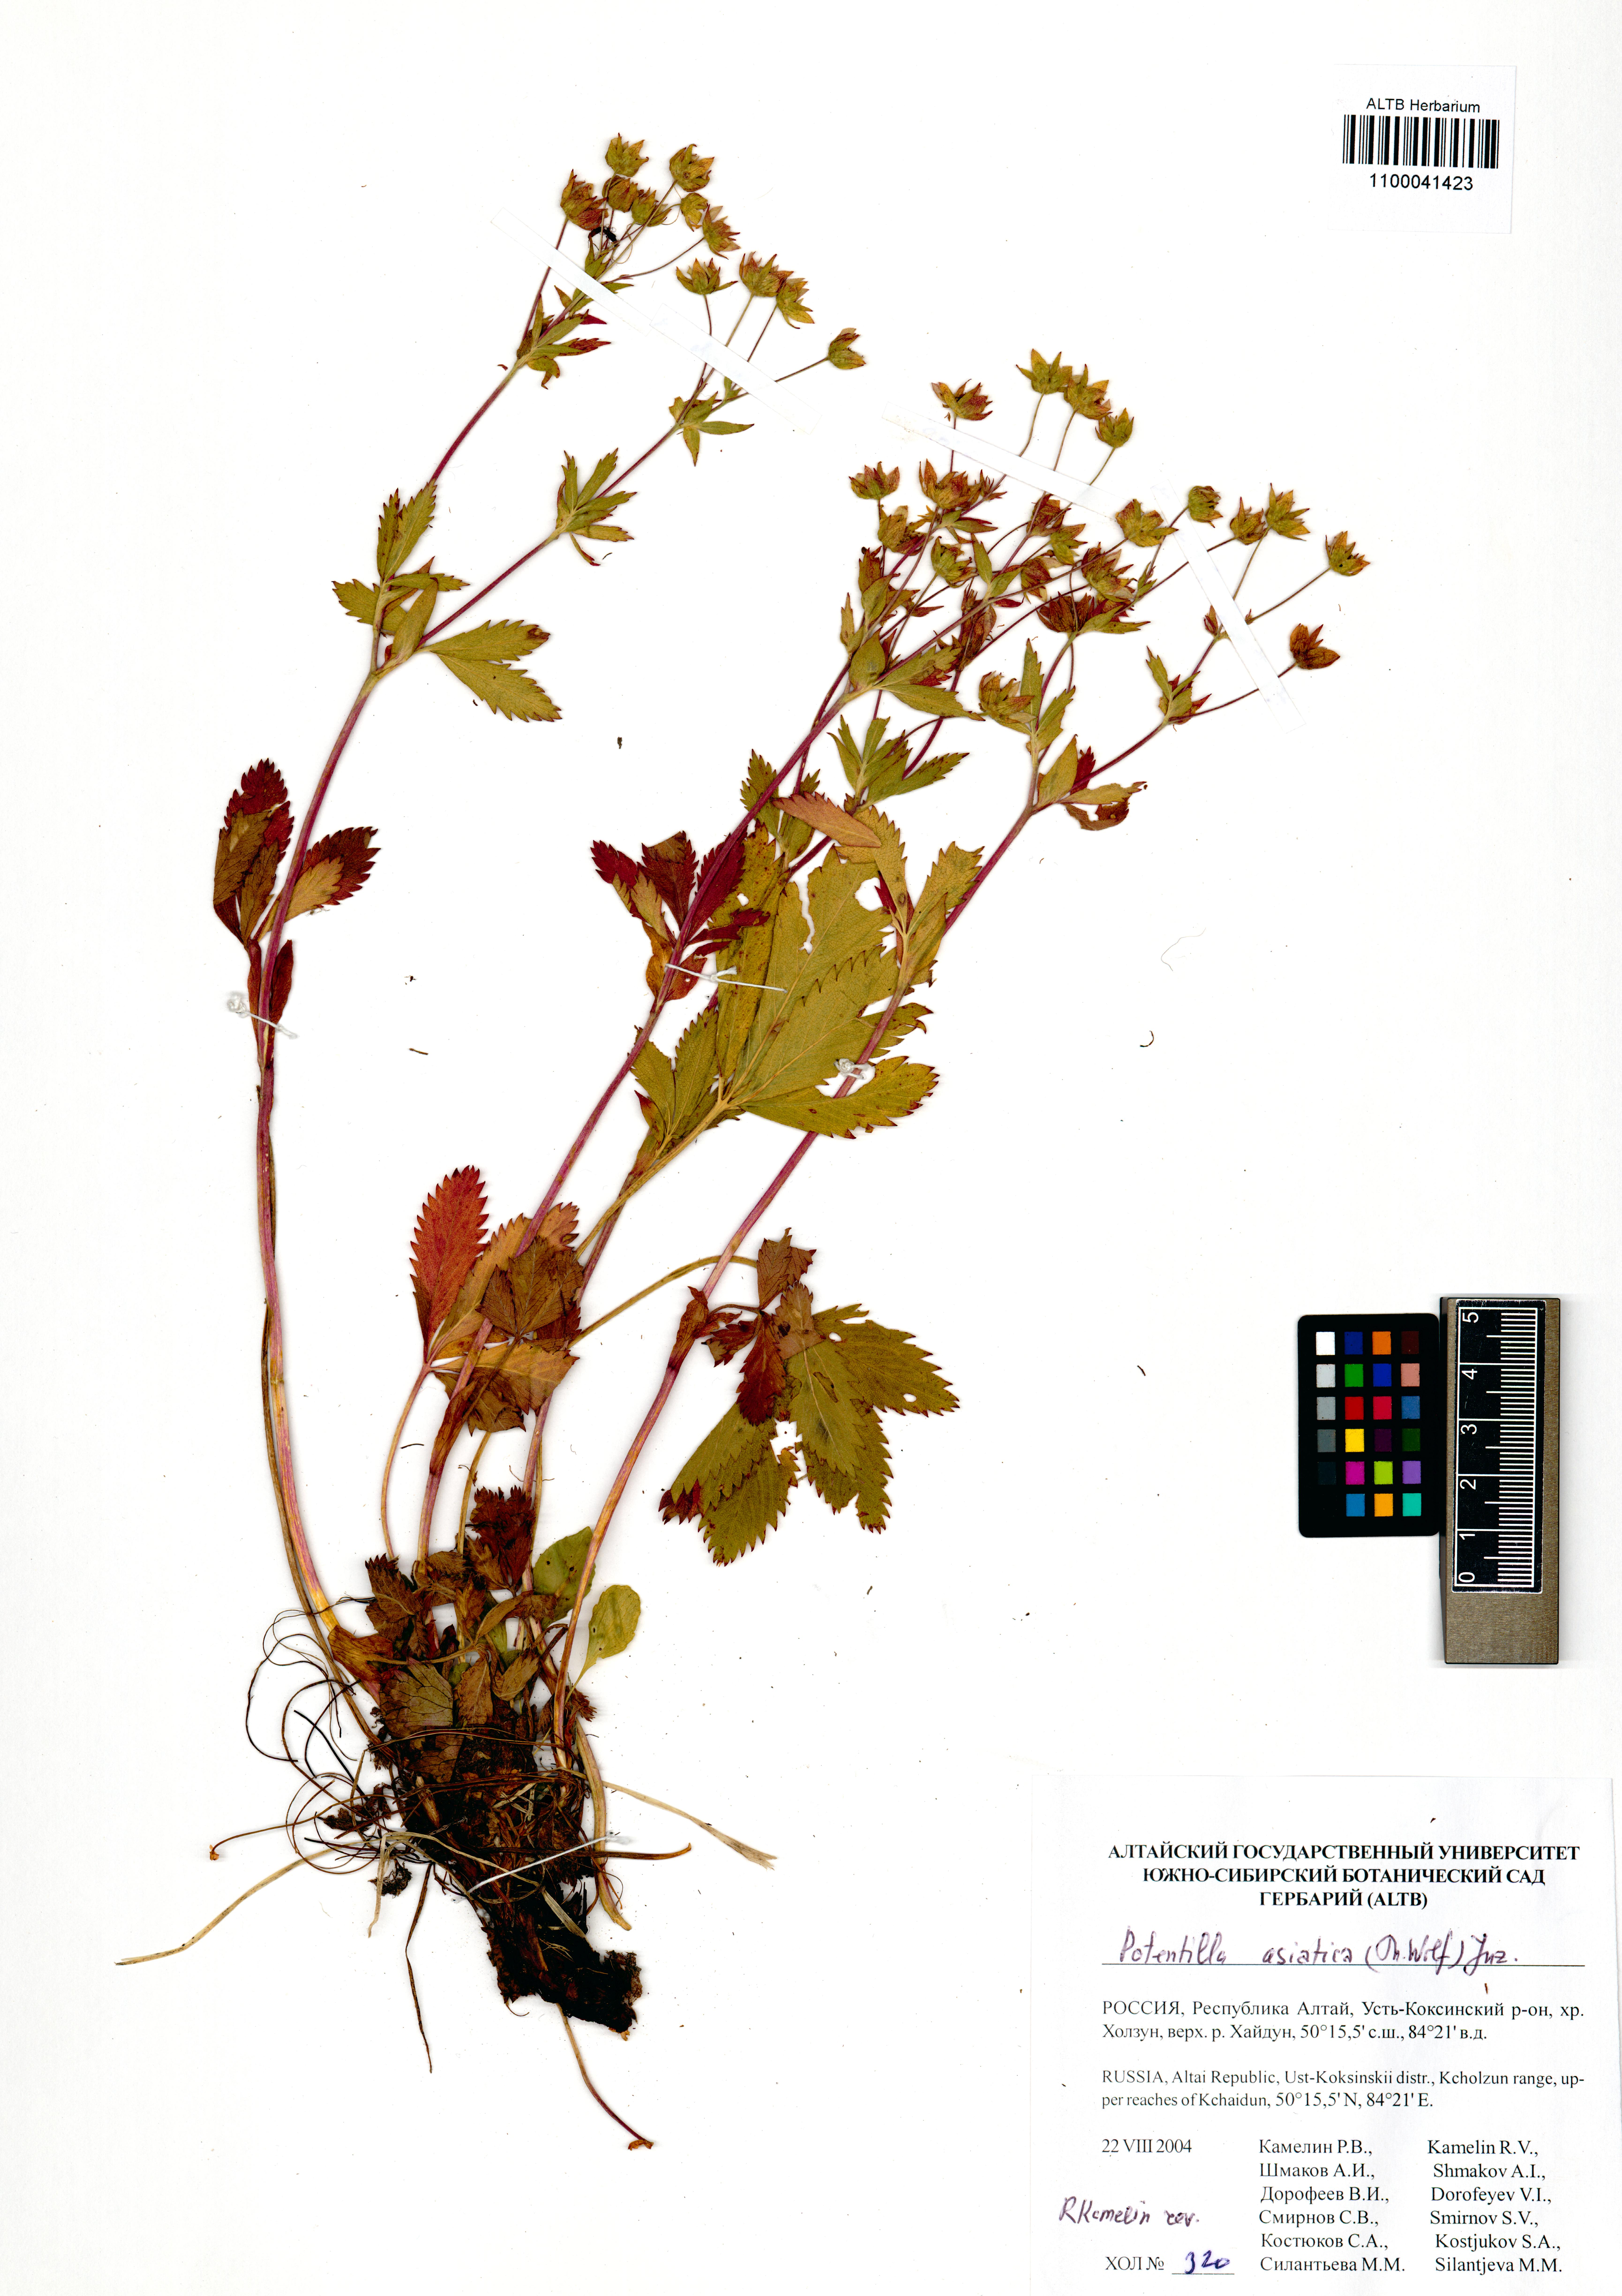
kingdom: Plantae
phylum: Tracheophyta
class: Magnoliopsida
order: Rosales
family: Rosaceae
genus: Potentilla
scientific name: Potentilla asiatica
